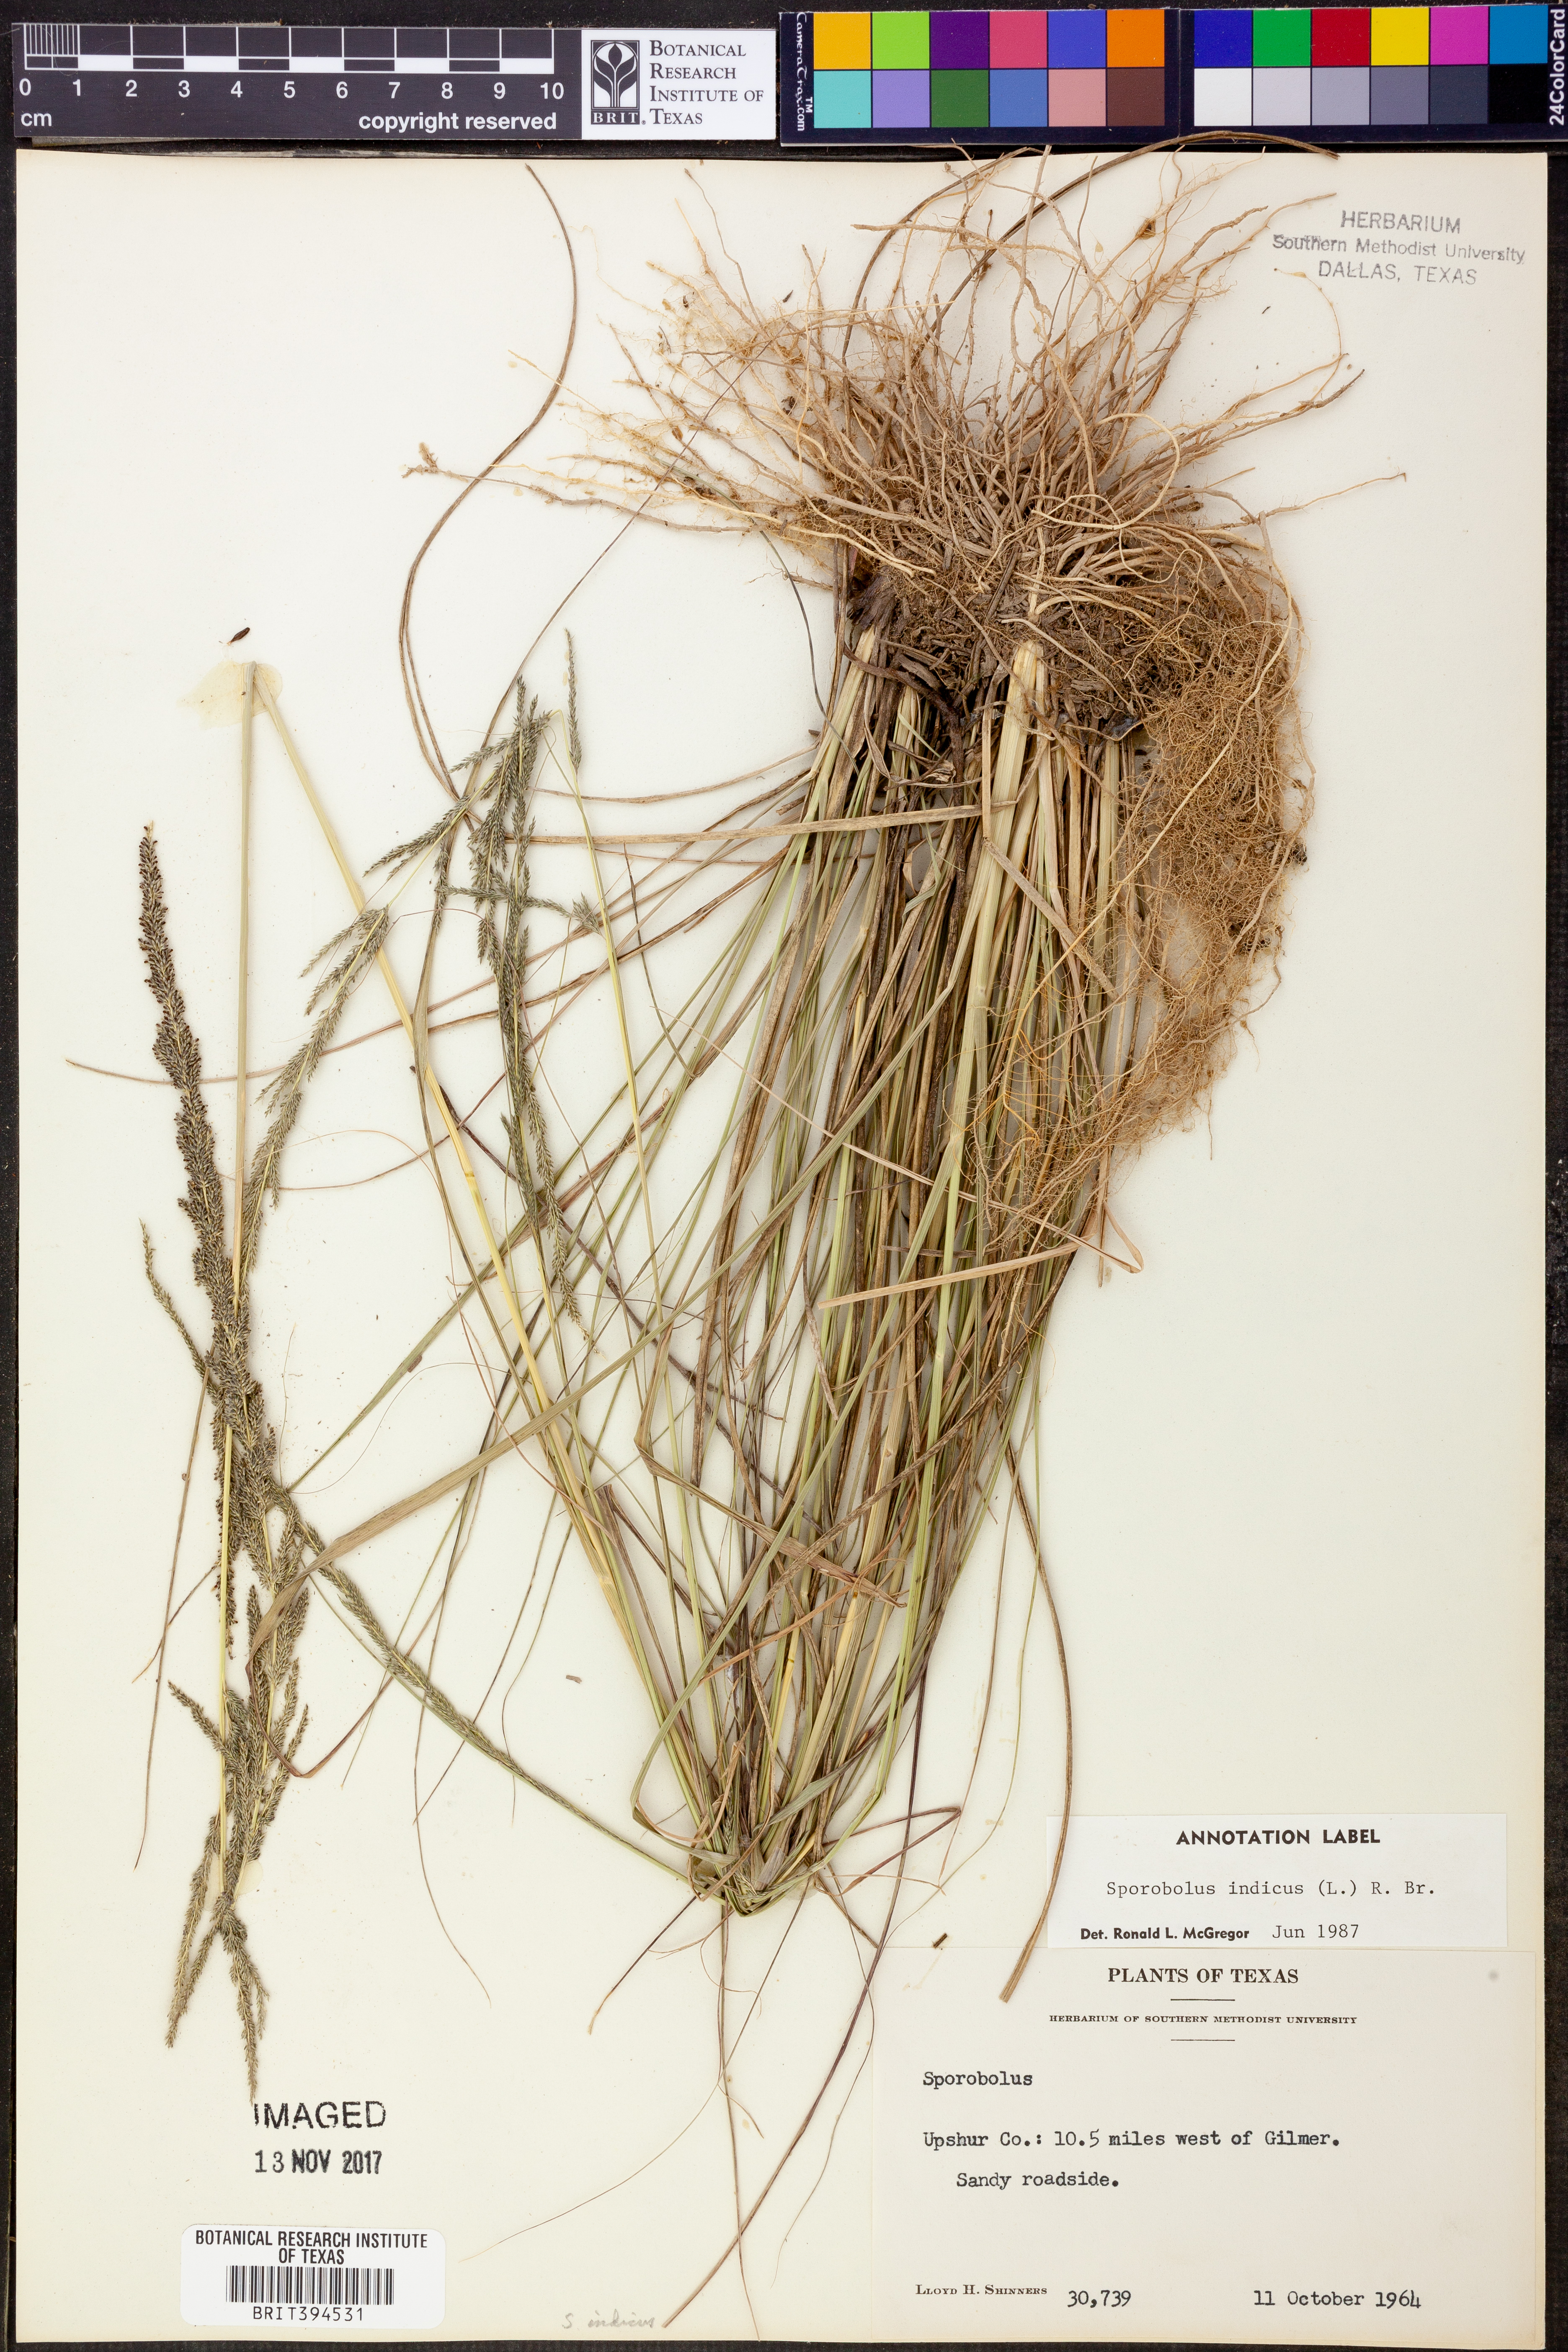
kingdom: Plantae
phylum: Tracheophyta
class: Liliopsida
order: Poales
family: Poaceae
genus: Sporobolus
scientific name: Sporobolus indicus
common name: Smut grass
